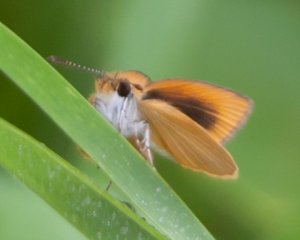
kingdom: Animalia
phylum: Arthropoda
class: Insecta
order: Lepidoptera
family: Hesperiidae
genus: Ancyloxypha
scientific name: Ancyloxypha numitor
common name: Least Skipper
